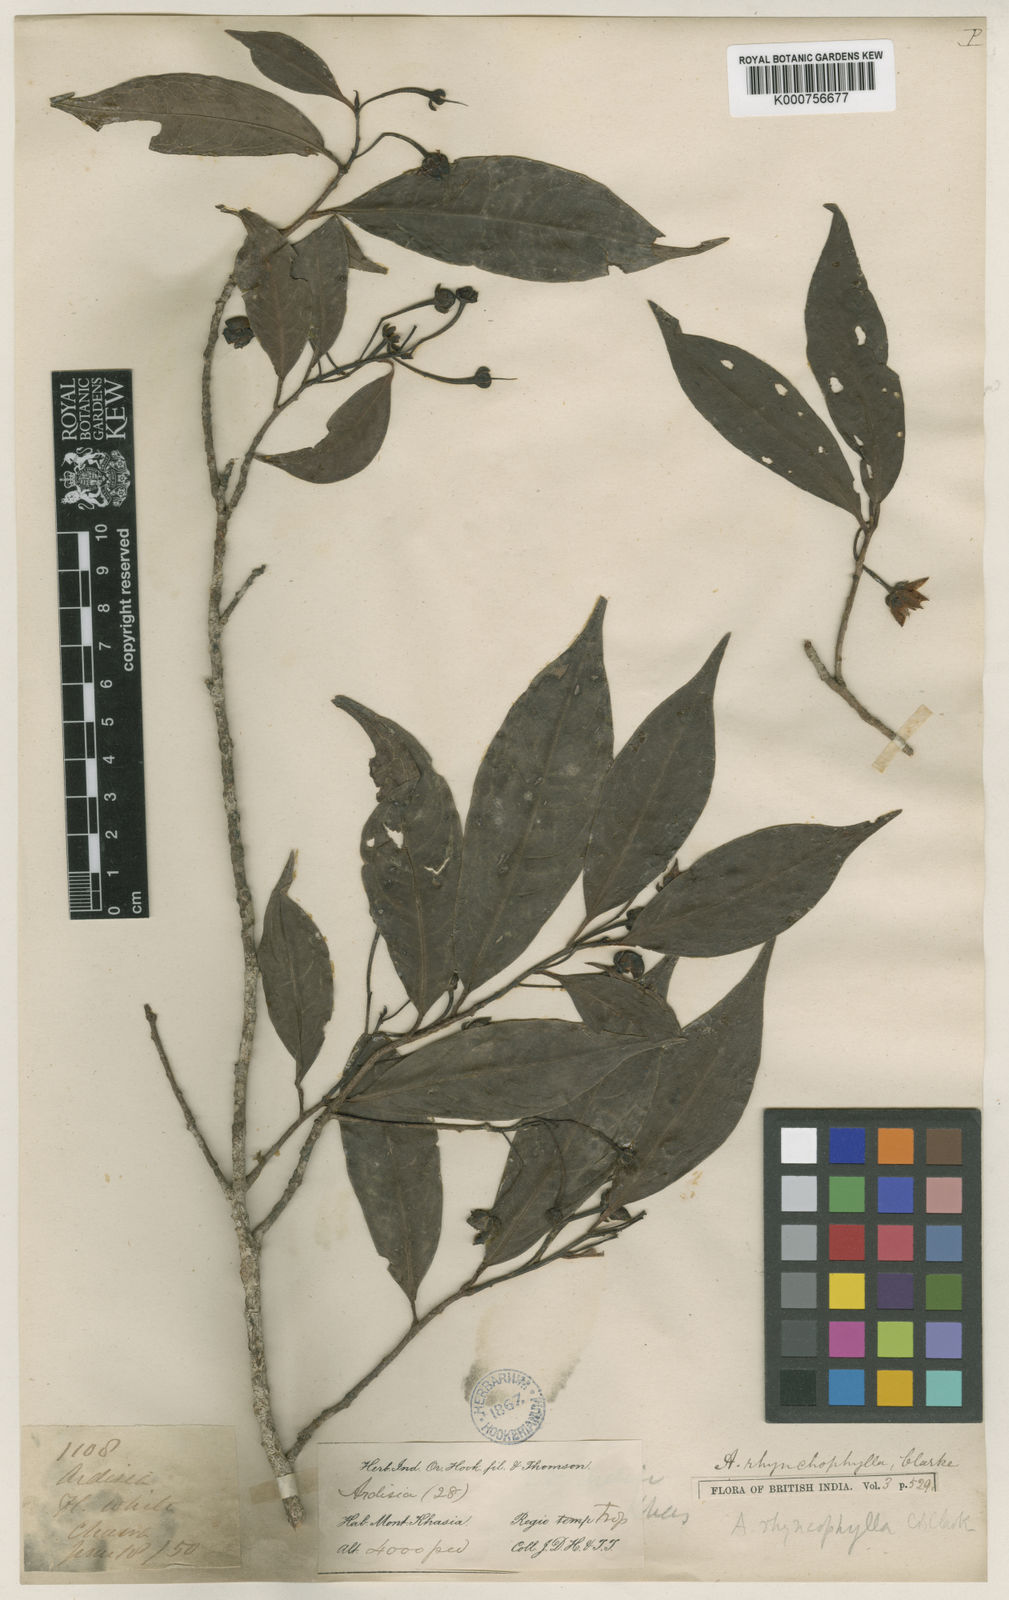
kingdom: Plantae
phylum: Tracheophyta
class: Magnoliopsida
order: Ericales
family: Primulaceae
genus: Ardisia
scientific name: Ardisia rhynchophylla
